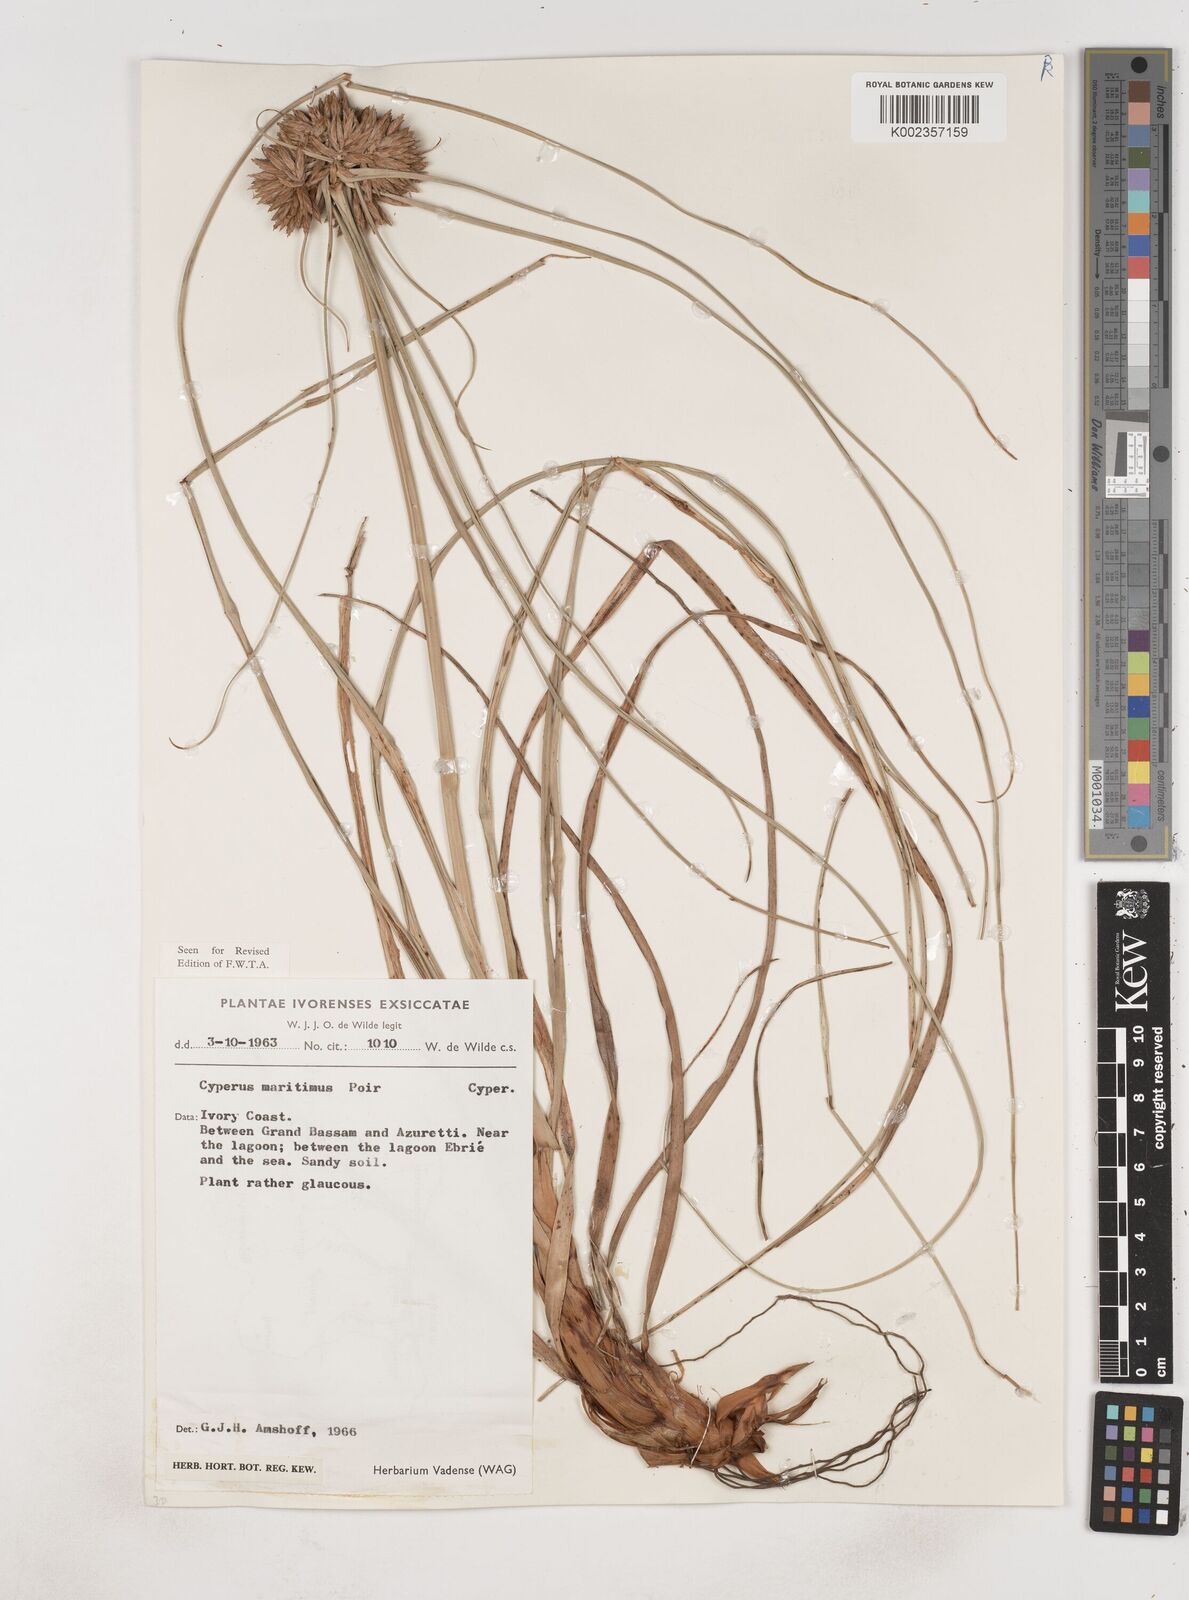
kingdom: Plantae
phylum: Tracheophyta
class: Liliopsida
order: Poales
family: Cyperaceae
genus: Cyperus
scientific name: Cyperus crassipes
